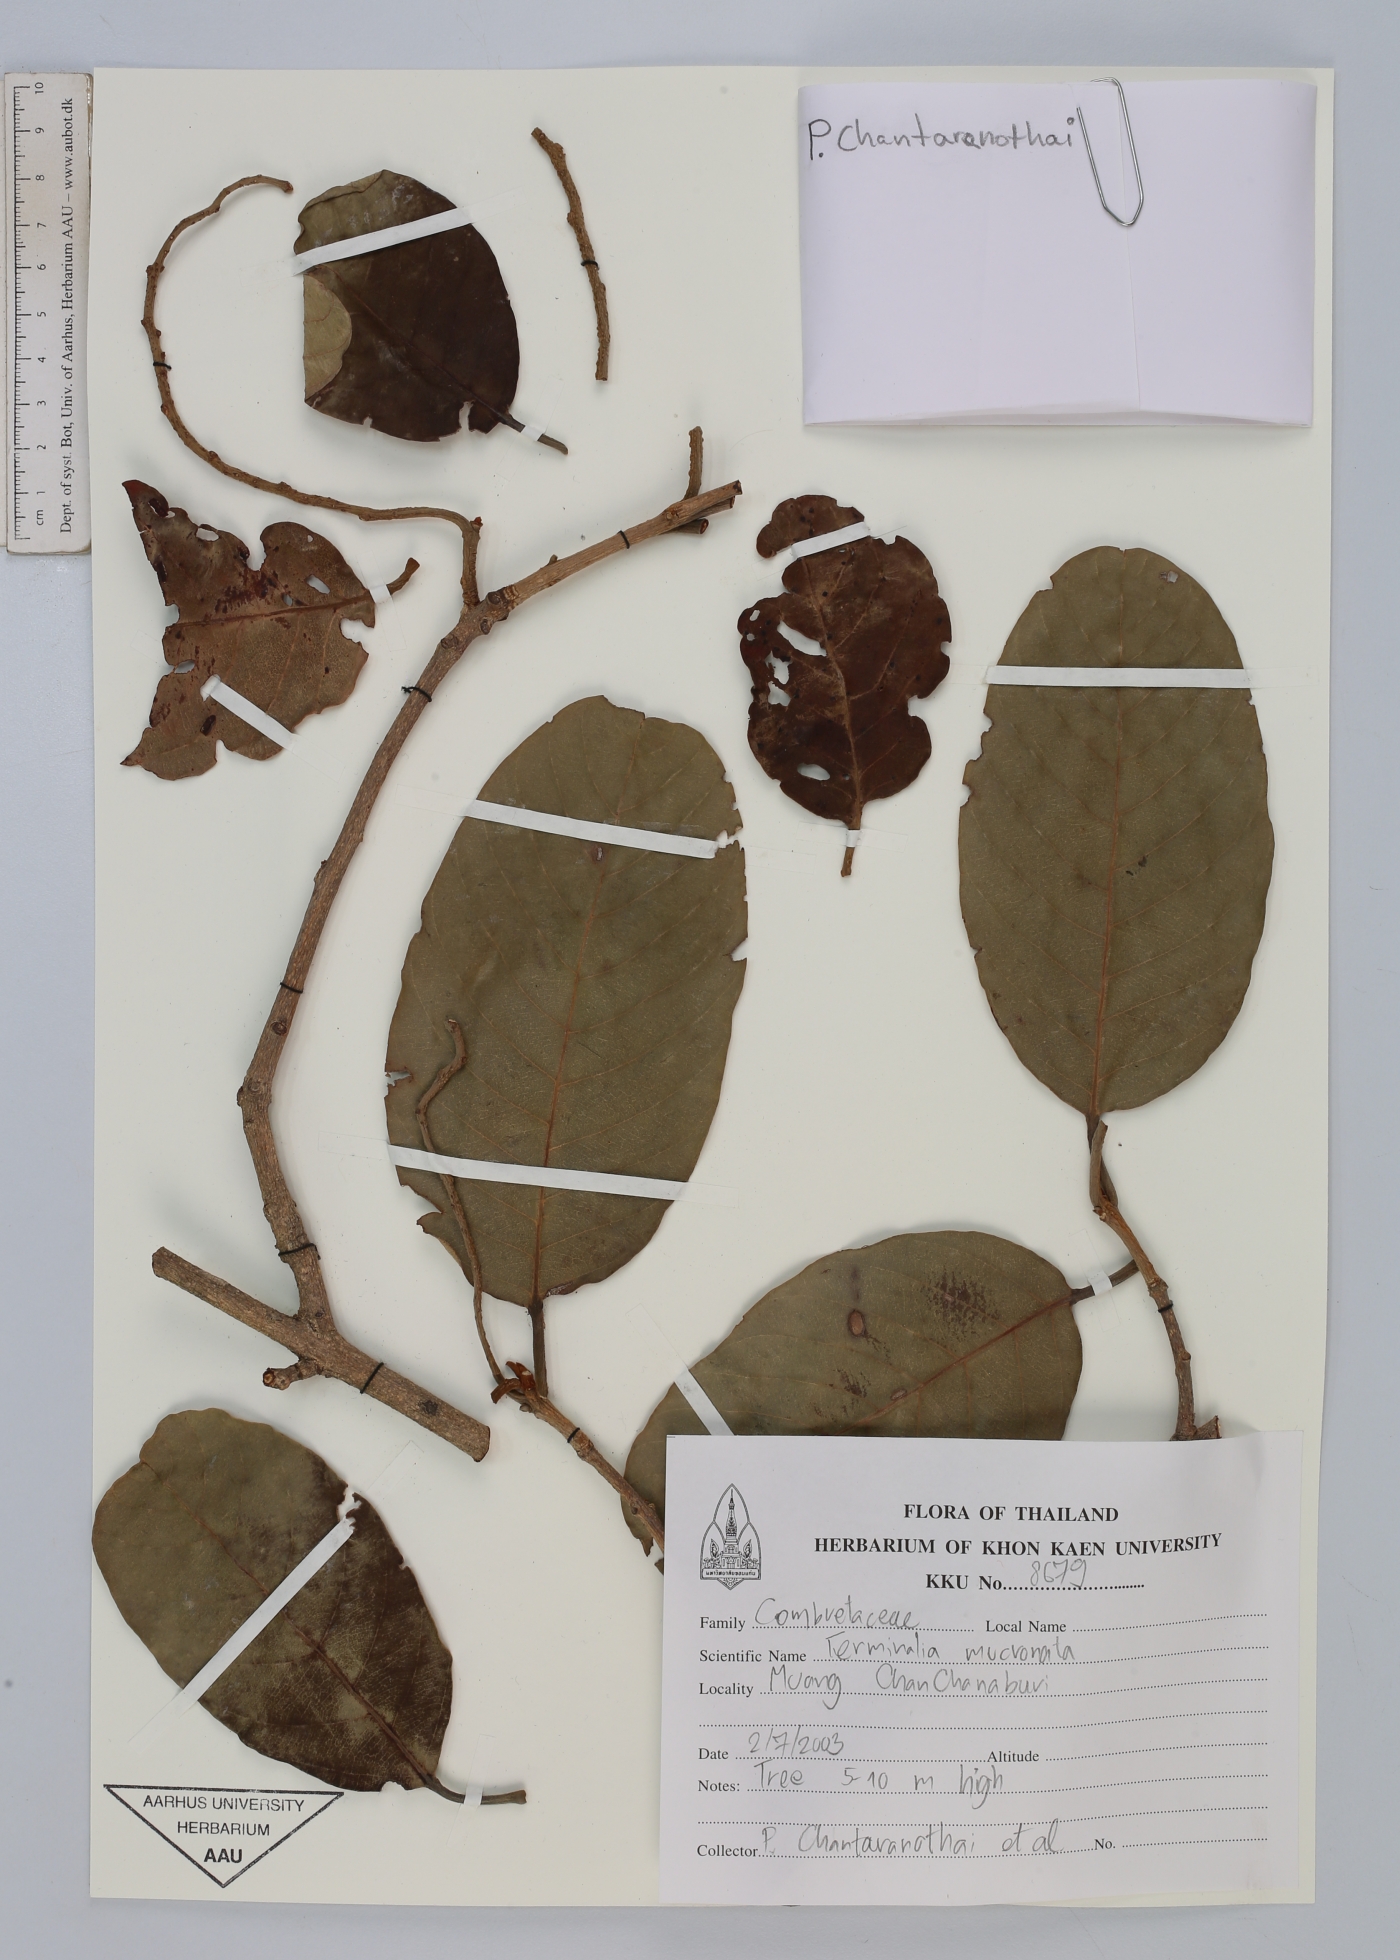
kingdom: Plantae
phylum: Tracheophyta
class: Magnoliopsida
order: Myrtales
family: Combretaceae
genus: Terminalia
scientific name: Terminalia corticosa
